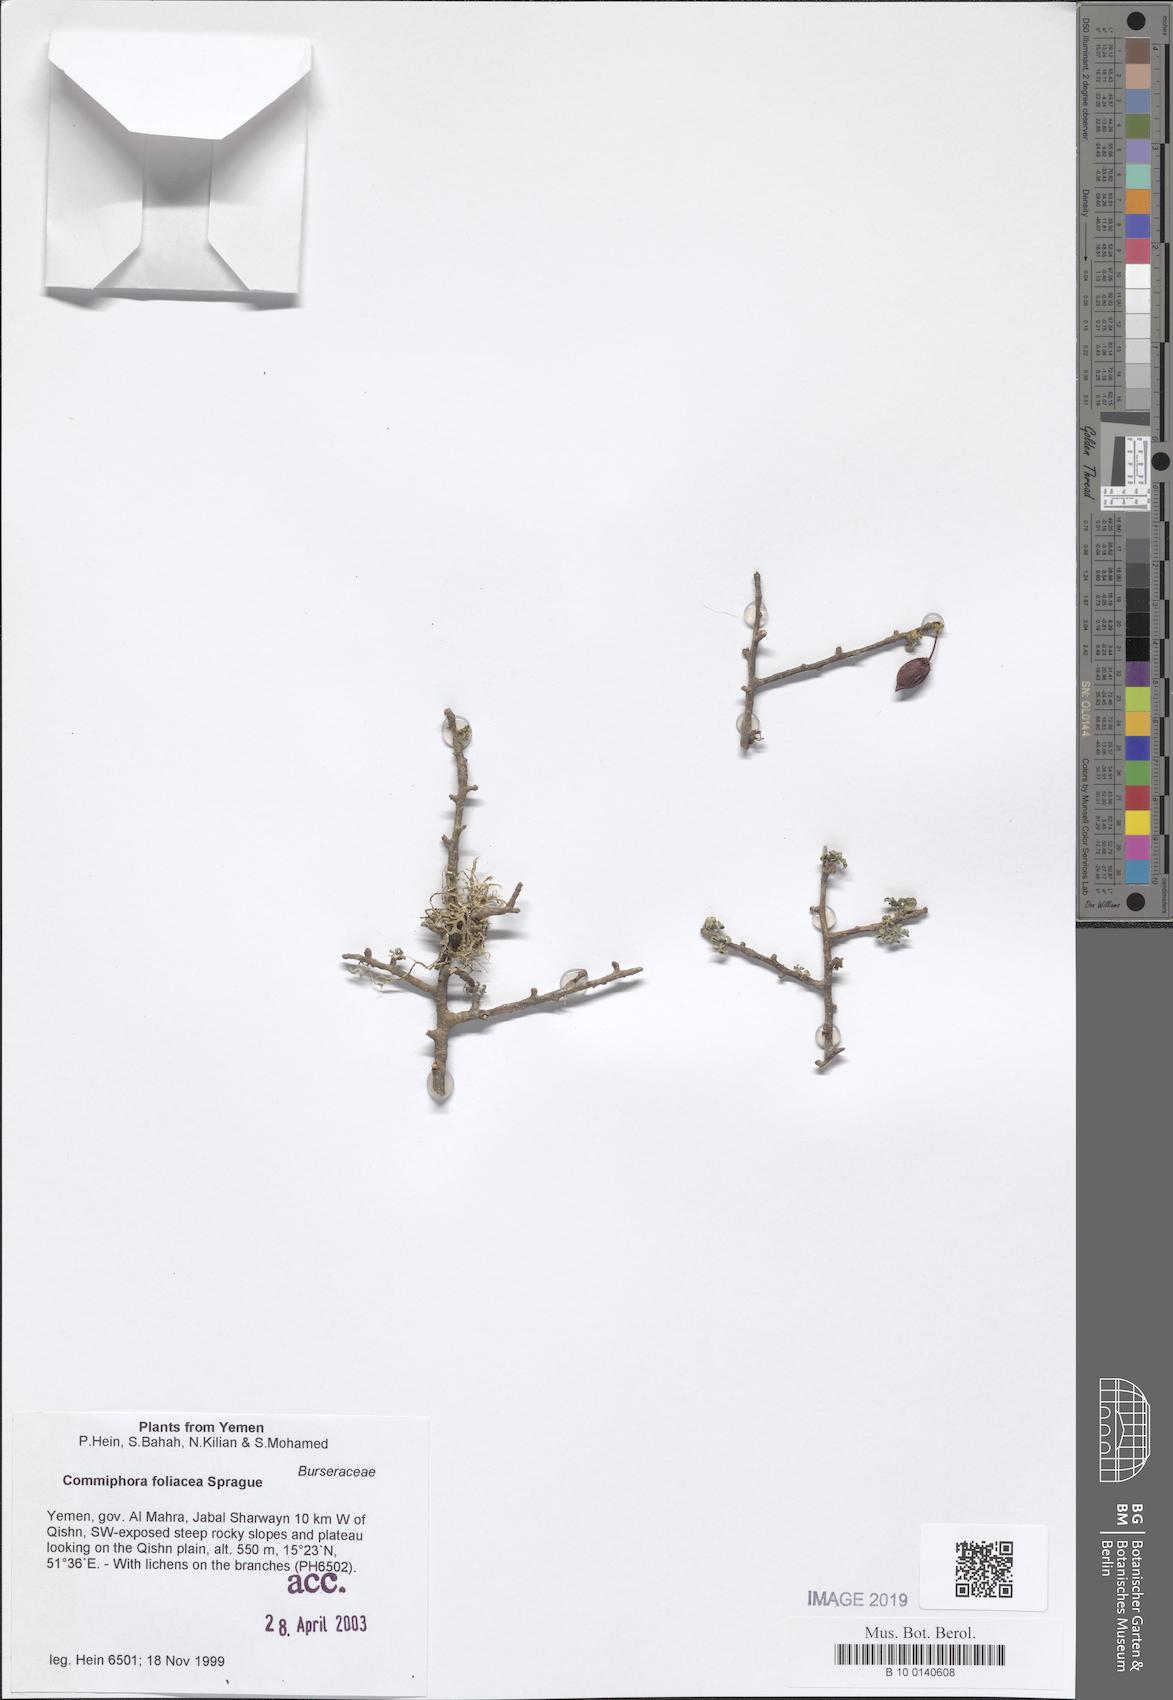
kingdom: Plantae
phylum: Tracheophyta
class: Magnoliopsida
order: Sapindales
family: Burseraceae
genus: Commiphora
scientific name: Commiphora foliacea
